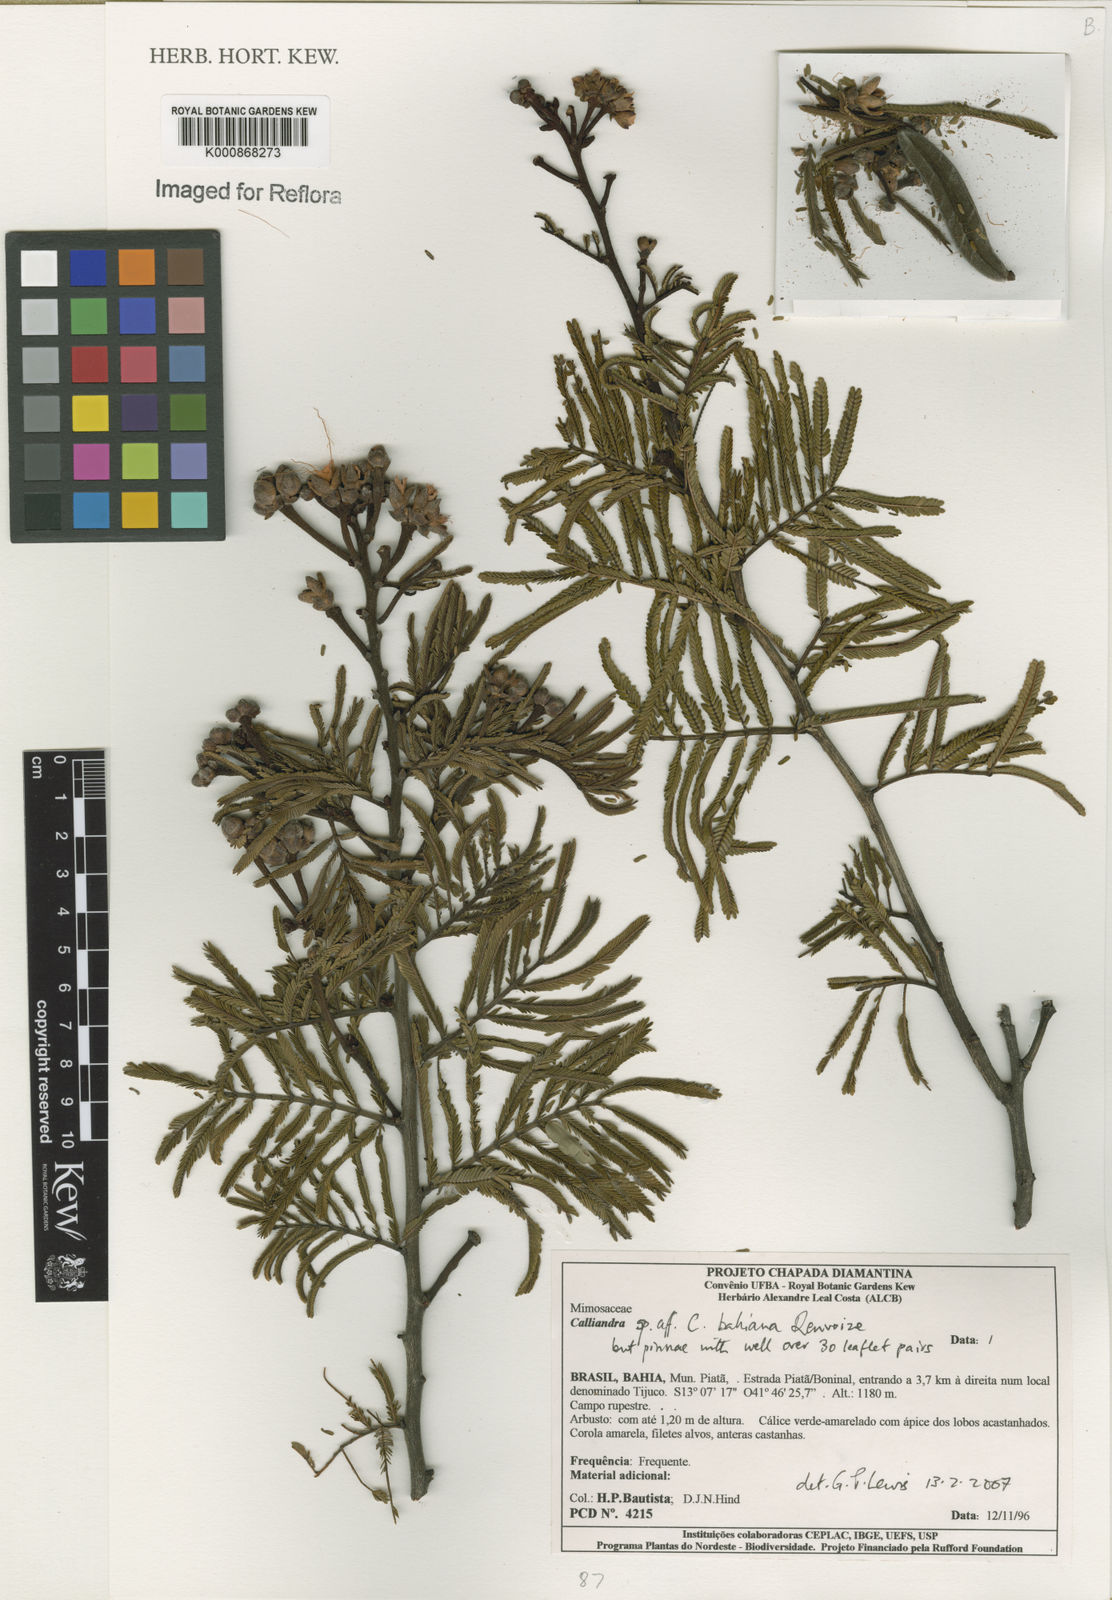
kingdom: Plantae
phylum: Tracheophyta
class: Magnoliopsida
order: Fabales
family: Fabaceae
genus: Calliandra
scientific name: Calliandra bahiana
